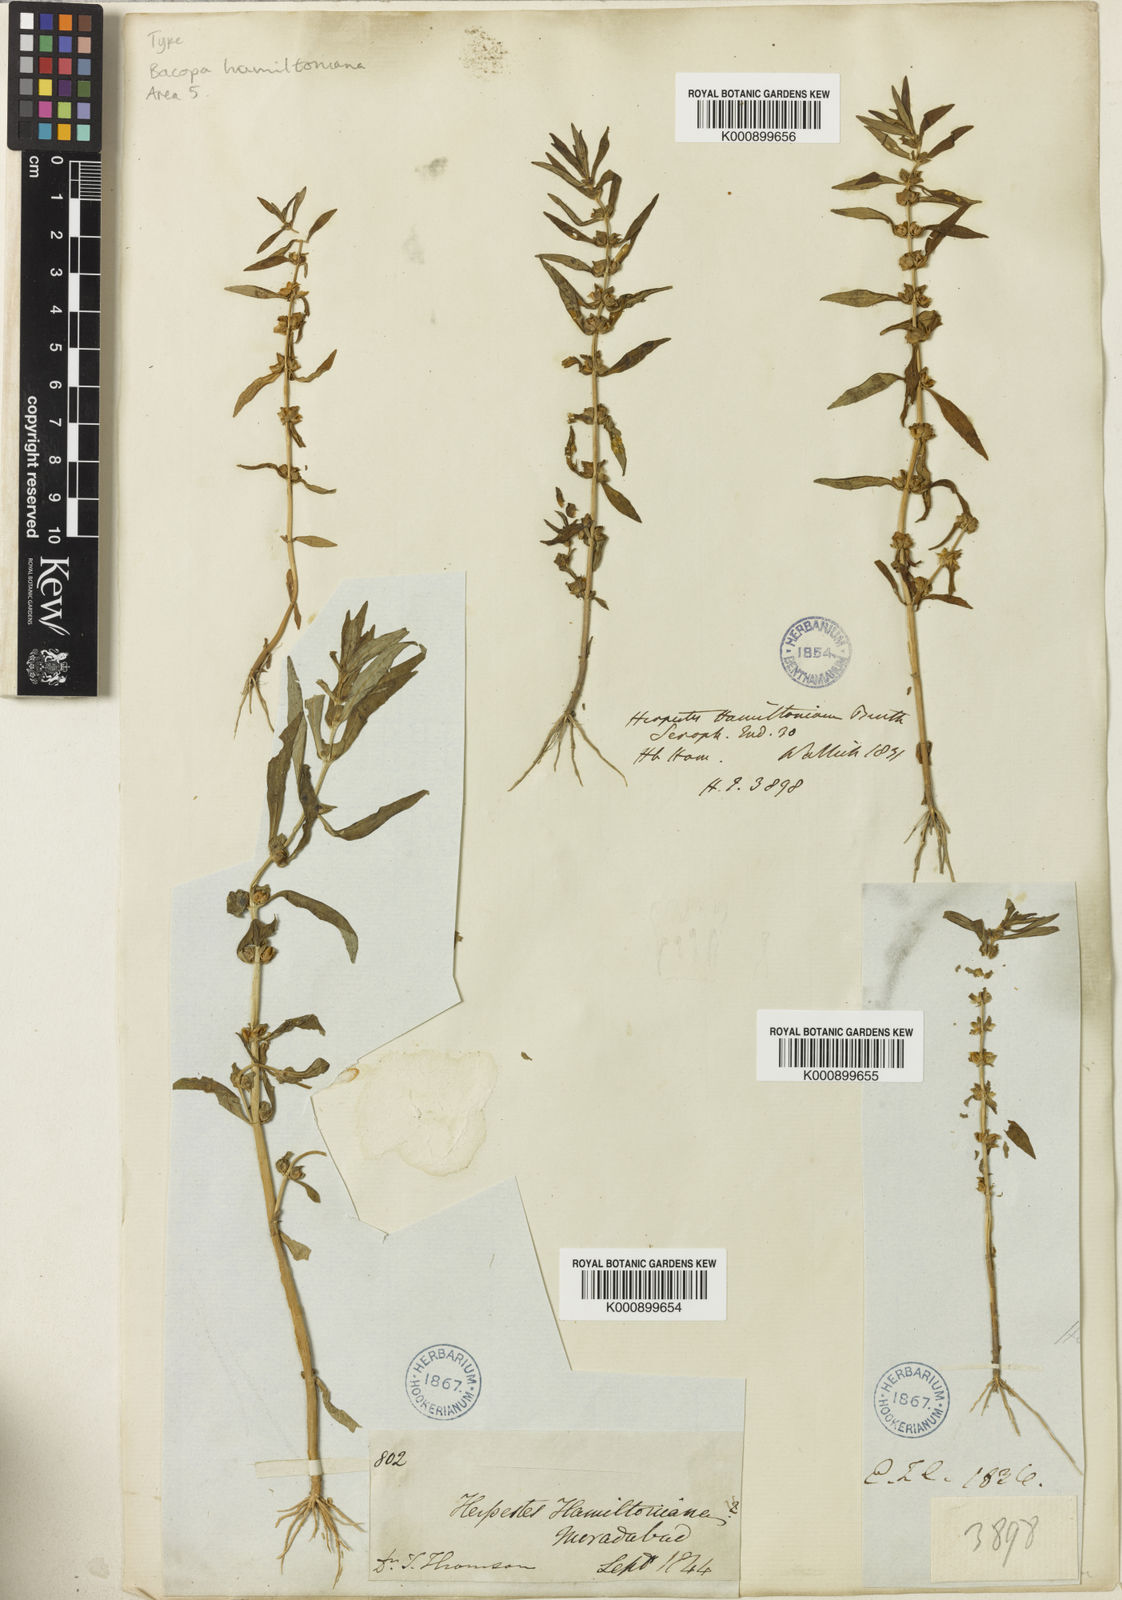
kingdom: Plantae
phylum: Tracheophyta
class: Magnoliopsida
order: Lamiales
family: Plantaginaceae
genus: Bacopa
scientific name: Bacopa hamiltoniana
